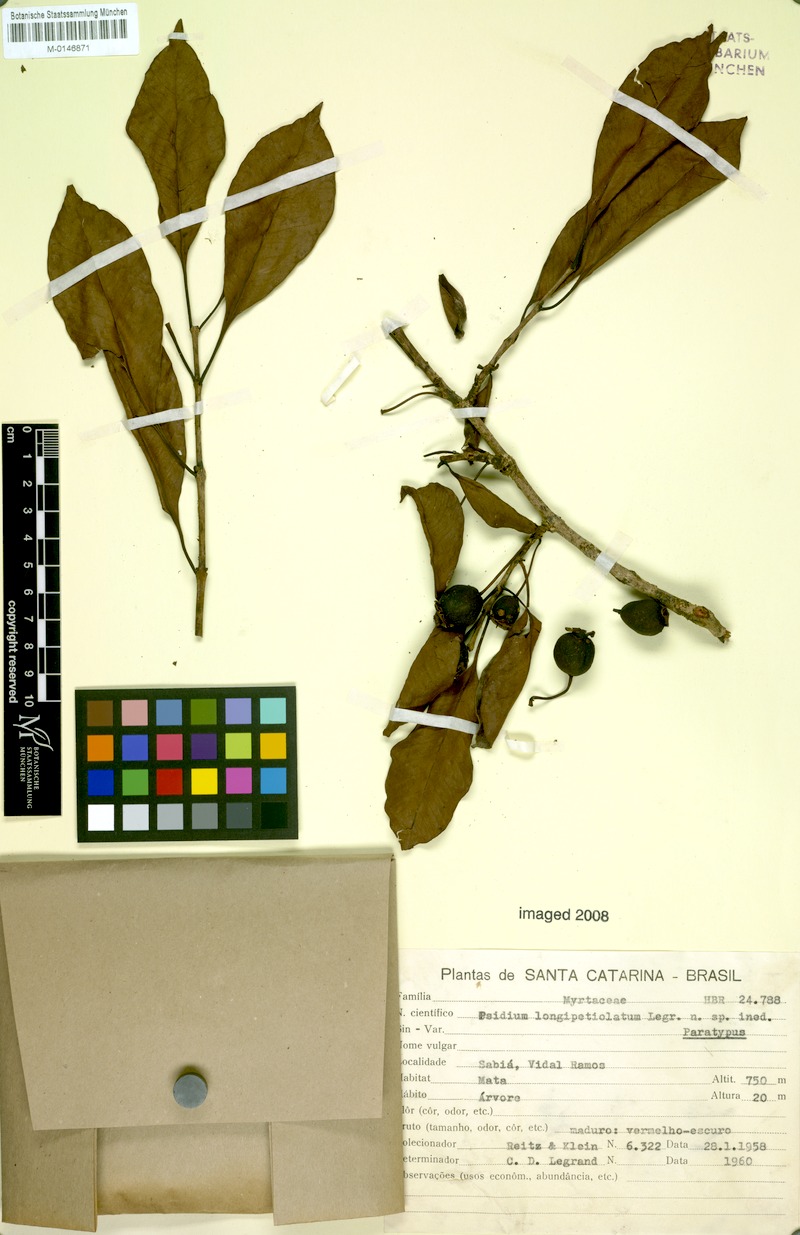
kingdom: Plantae
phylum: Tracheophyta
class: Magnoliopsida
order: Myrtales
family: Myrtaceae
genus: Psidium
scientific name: Psidium longipetiolatum
